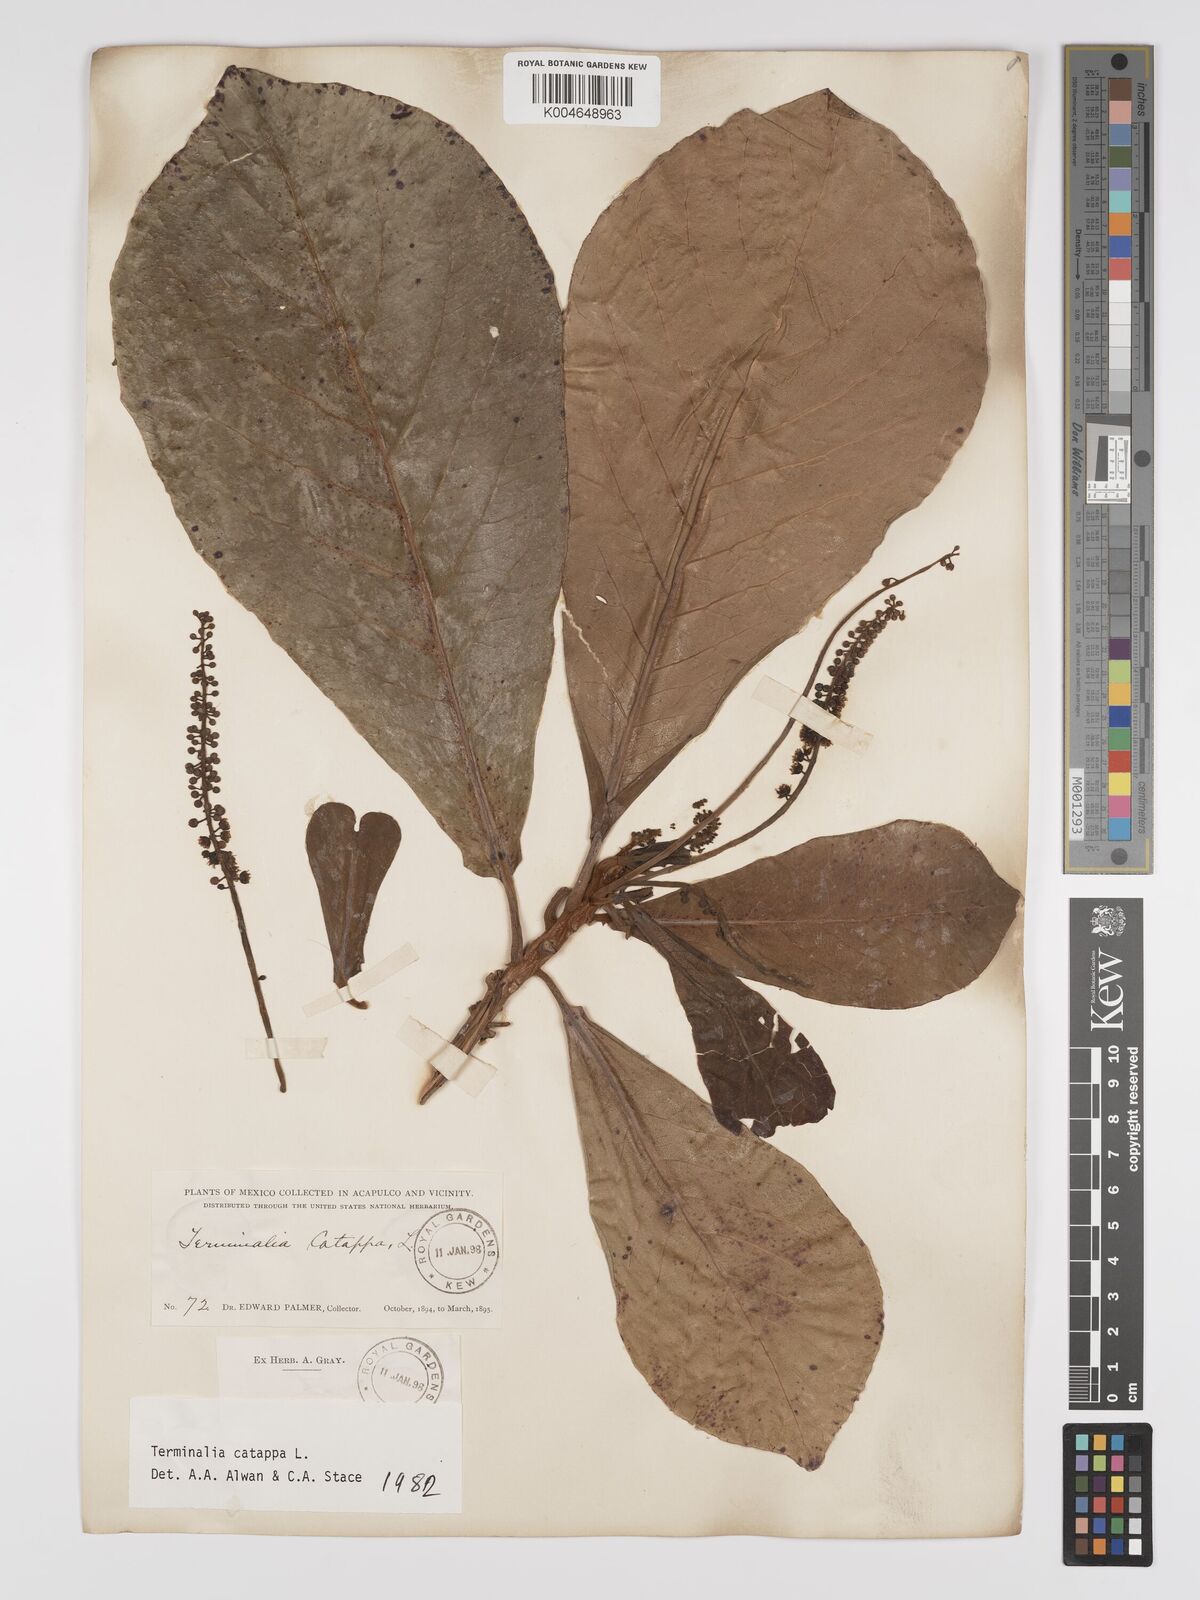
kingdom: Plantae
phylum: Tracheophyta
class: Magnoliopsida
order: Myrtales
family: Combretaceae
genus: Terminalia
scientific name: Terminalia catappa
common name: Tropical almond
